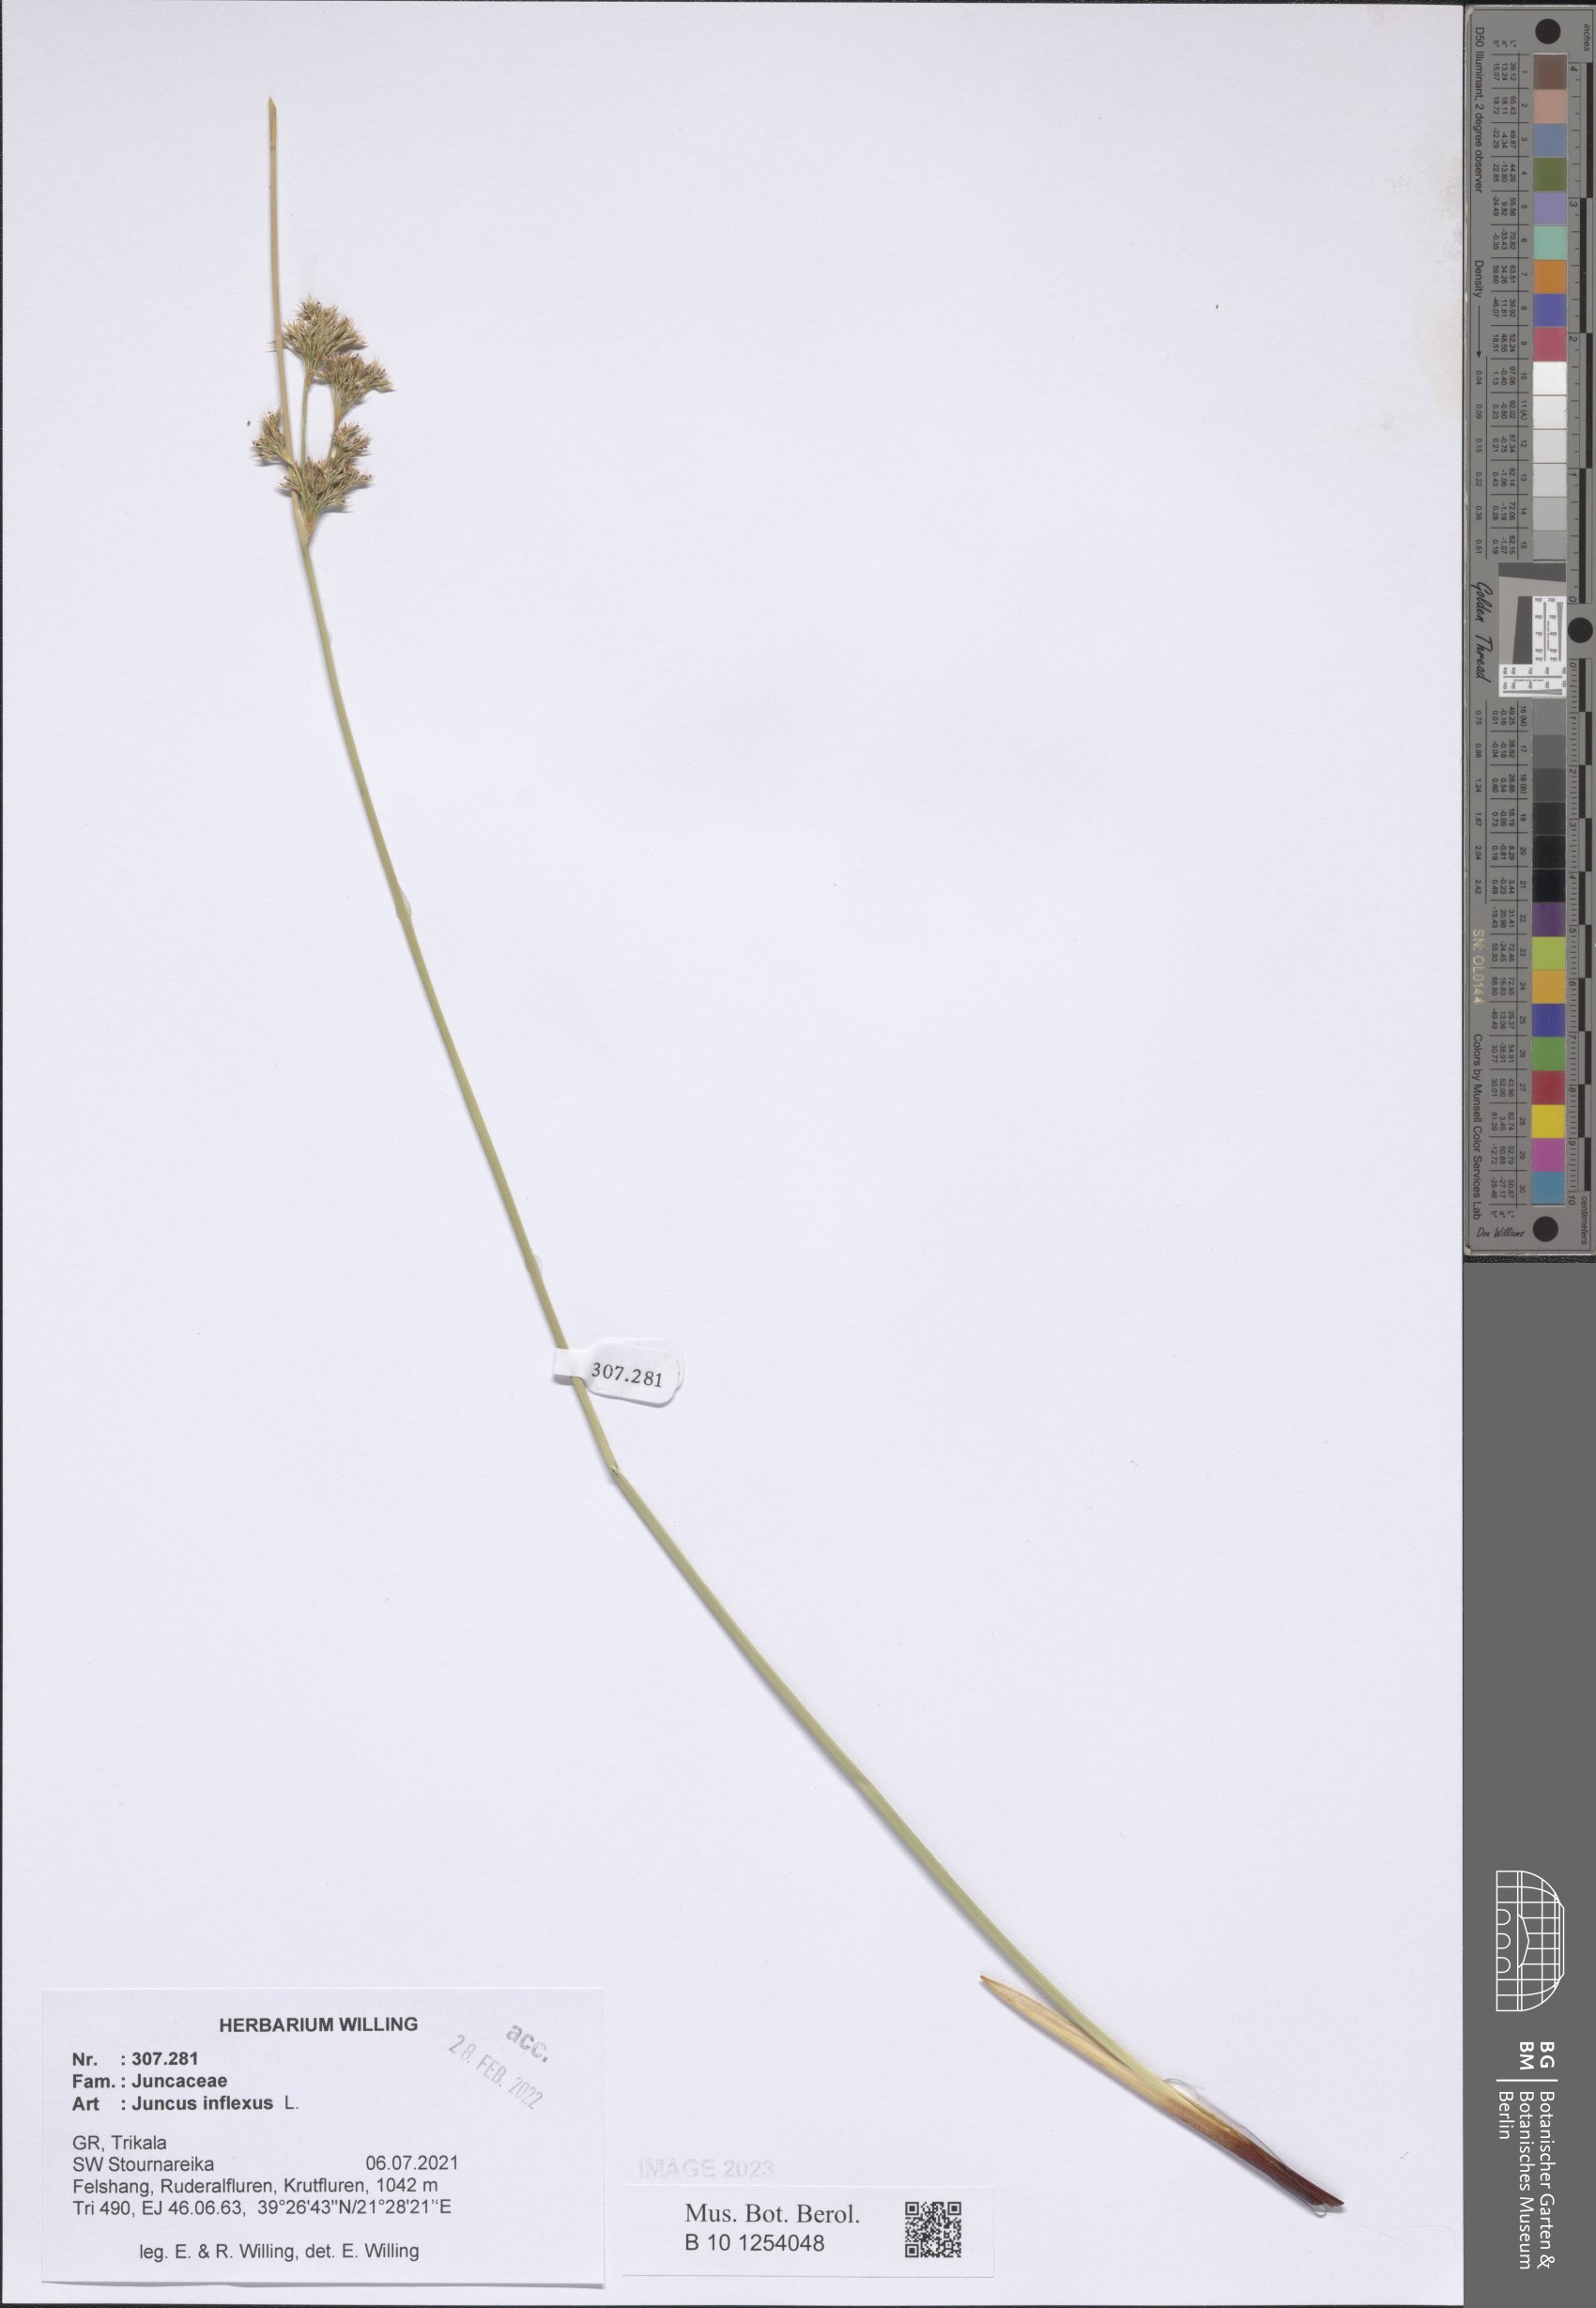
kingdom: Plantae
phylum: Tracheophyta
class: Liliopsida
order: Poales
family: Juncaceae
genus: Juncus
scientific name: Juncus inflexus
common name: Hard rush
